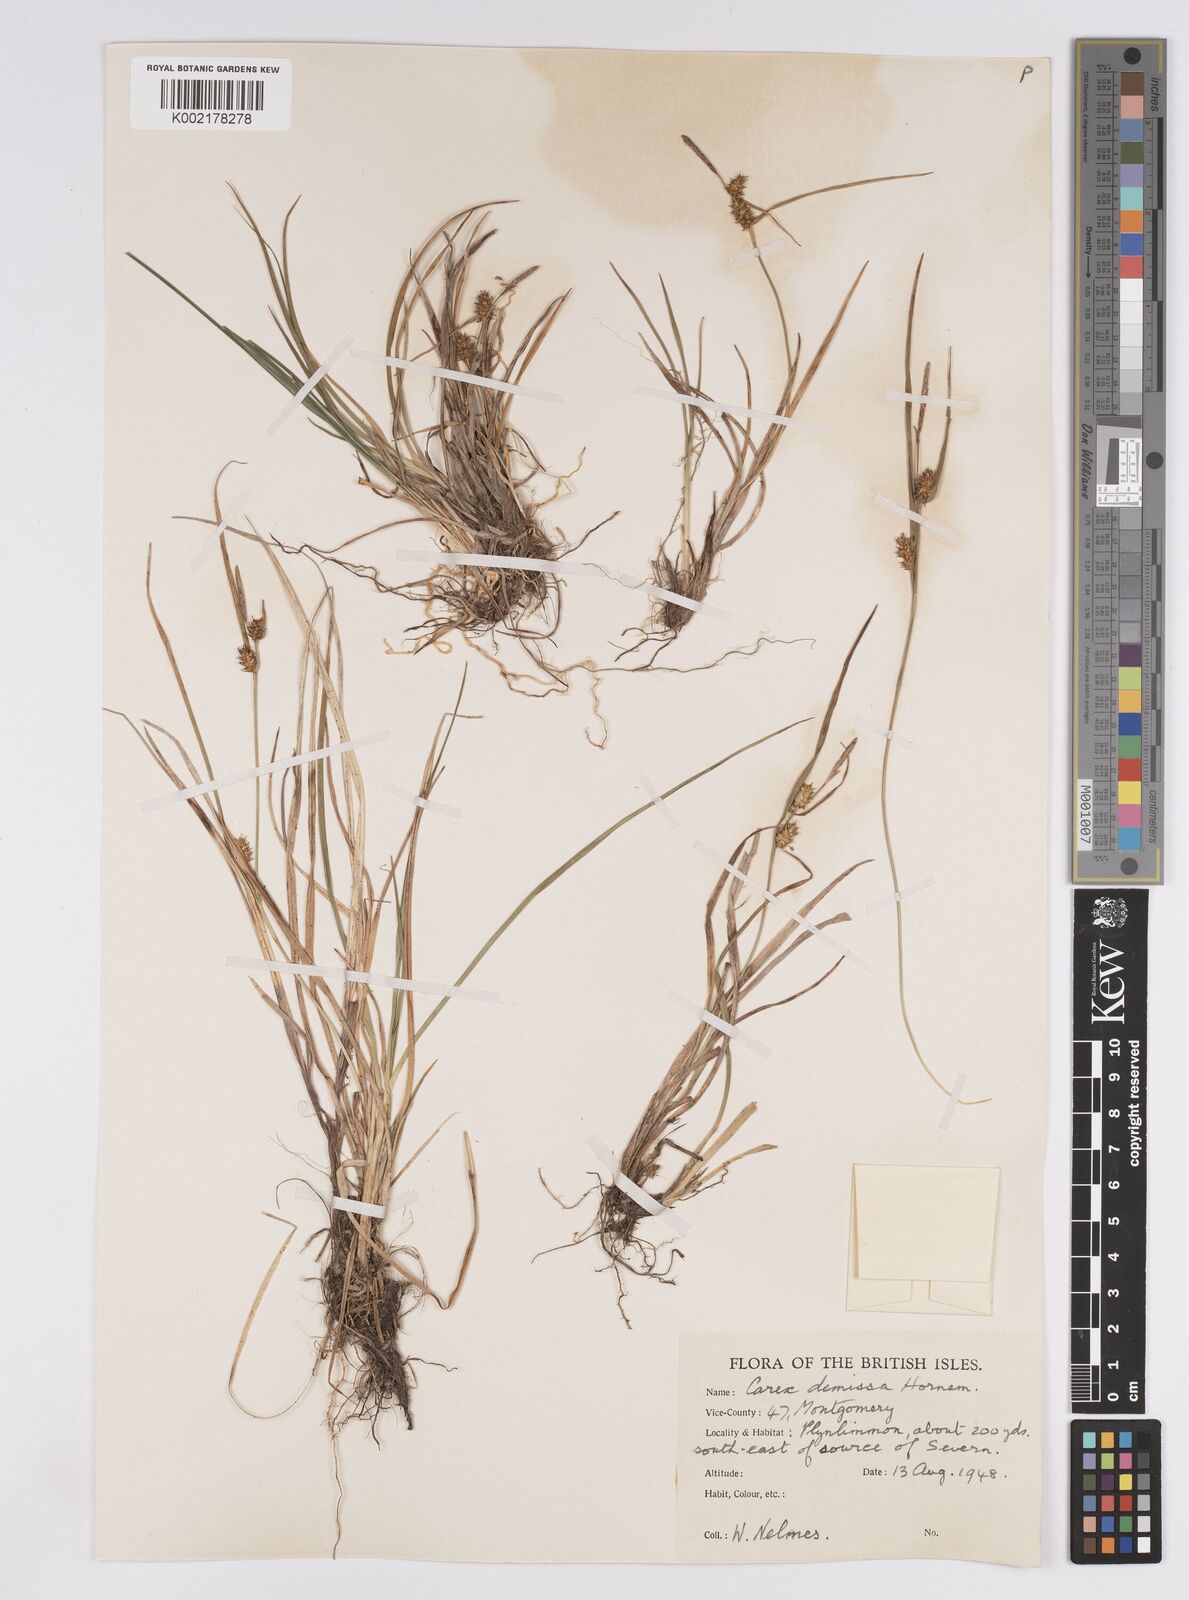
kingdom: Plantae
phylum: Tracheophyta
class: Liliopsida
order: Poales
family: Cyperaceae
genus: Carex
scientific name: Carex demissa
